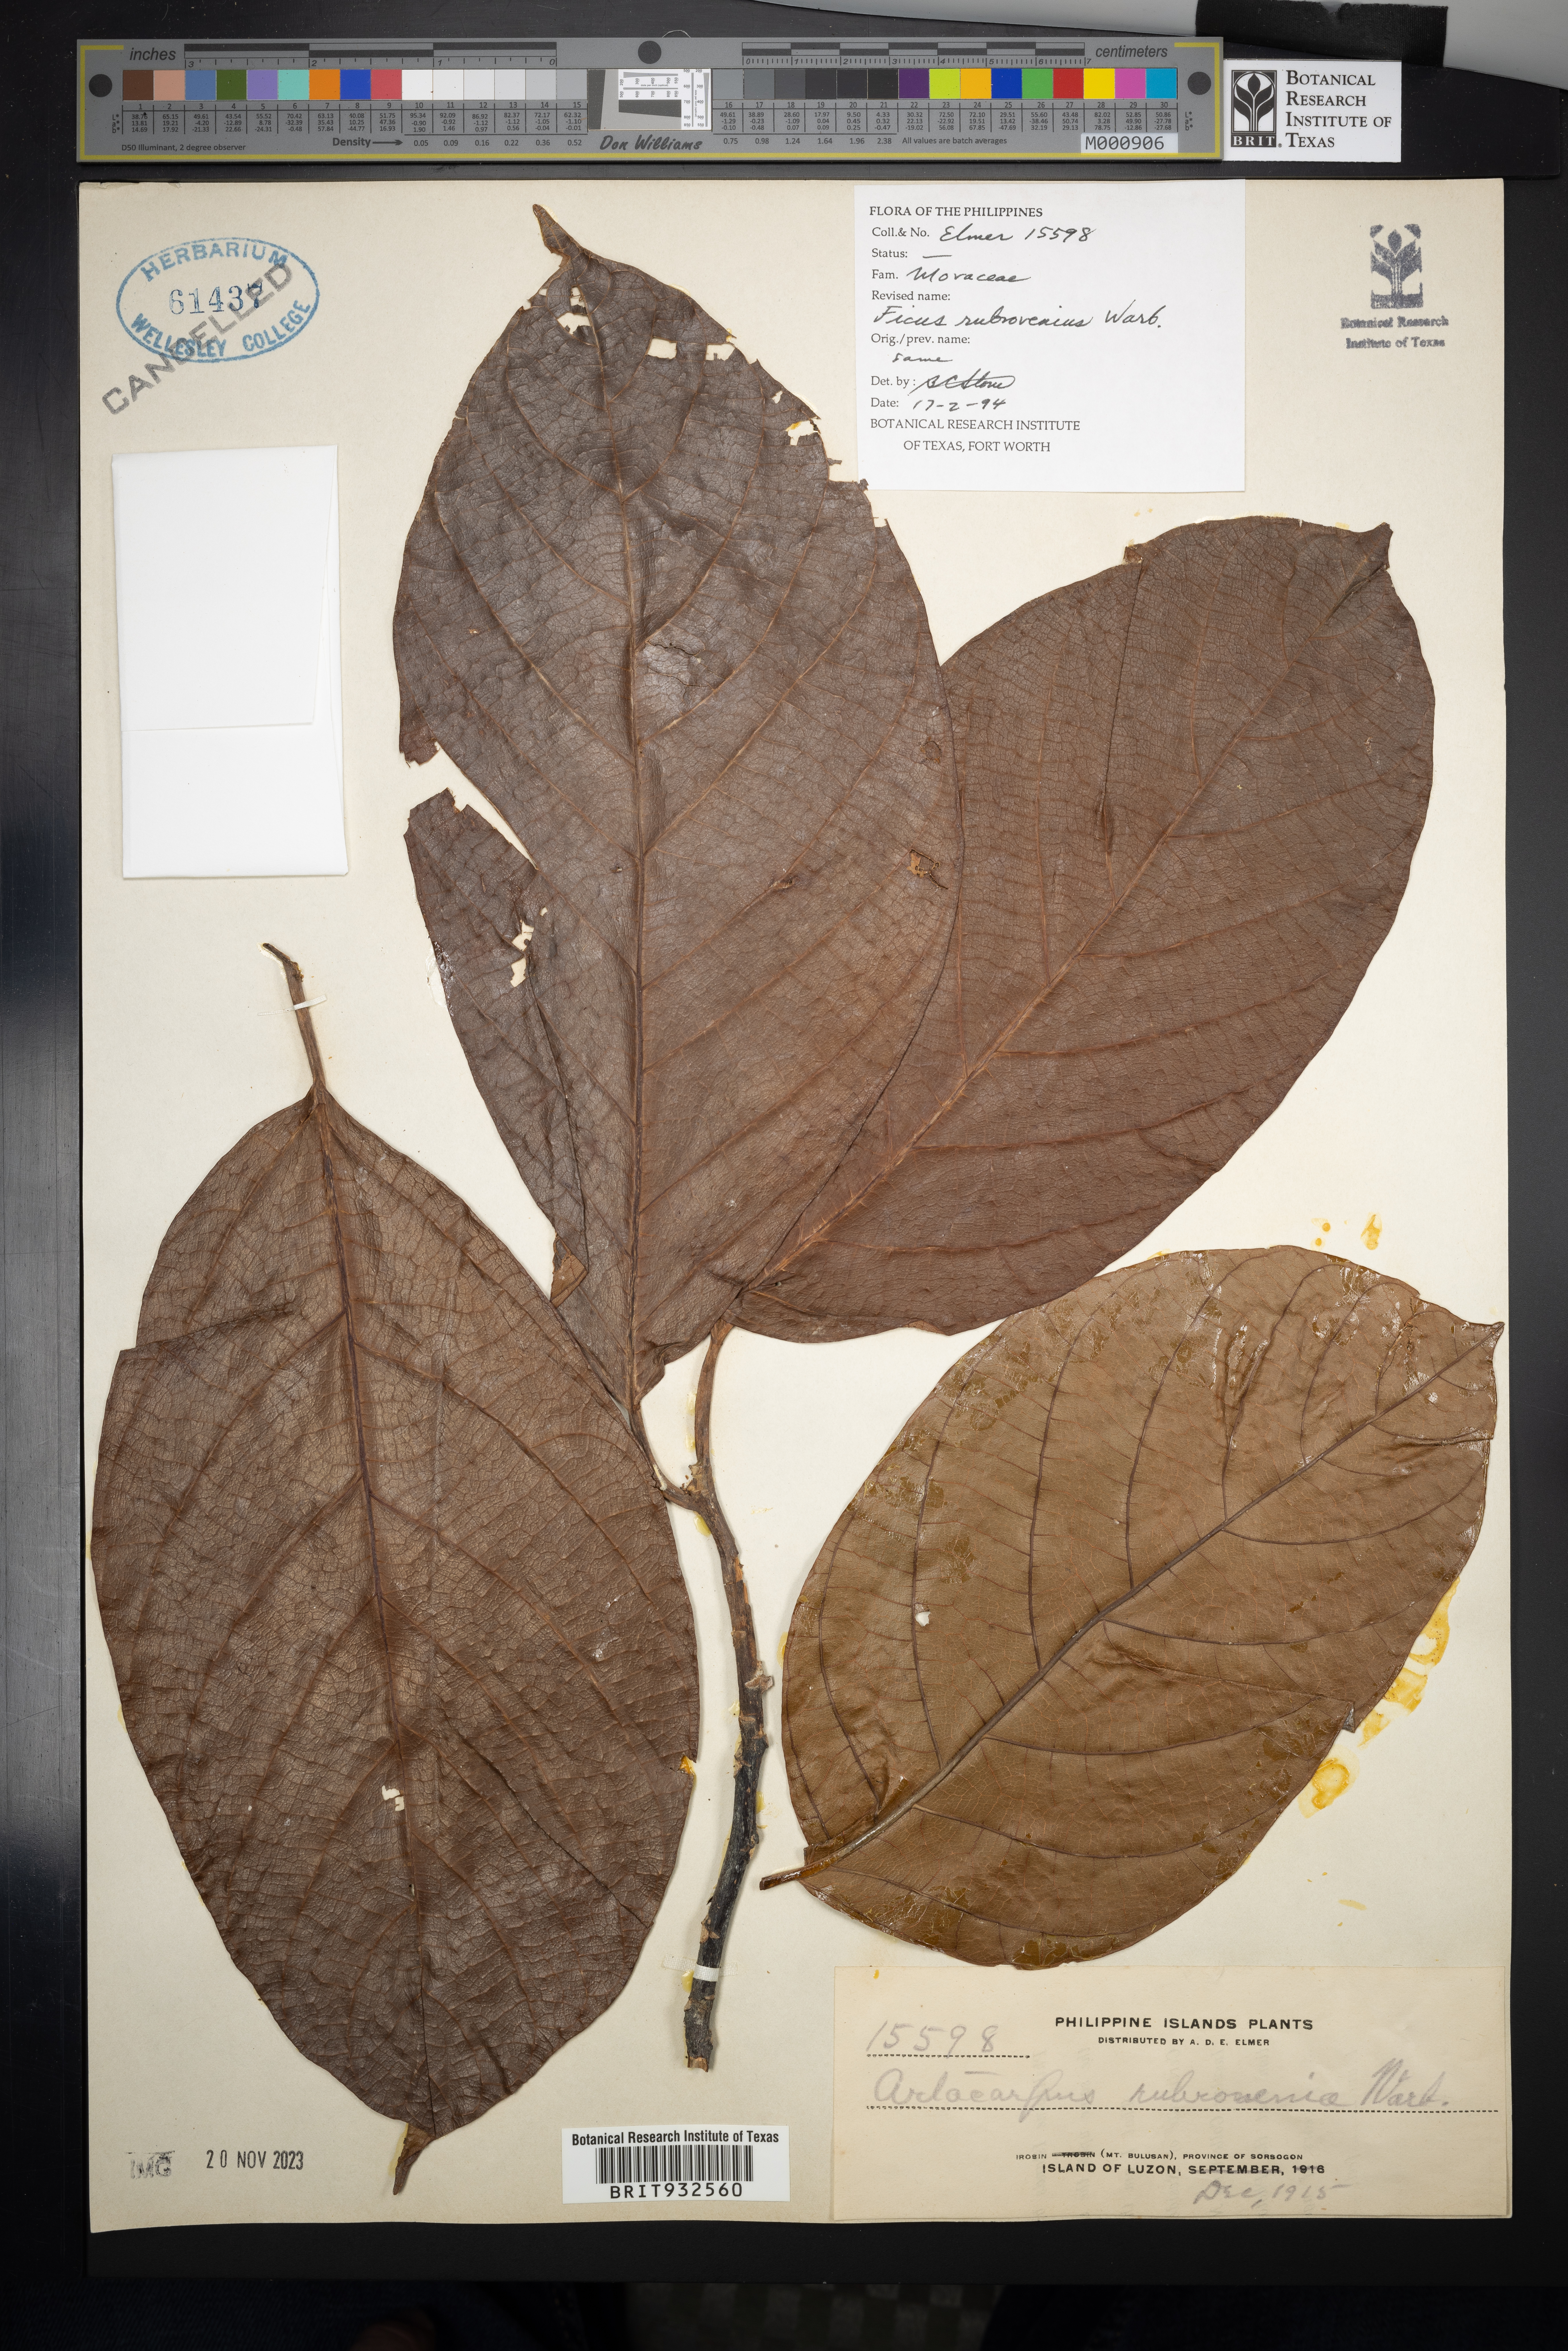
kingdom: Plantae
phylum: Tracheophyta
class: Magnoliopsida
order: Rosales
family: Moraceae
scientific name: Moraceae
